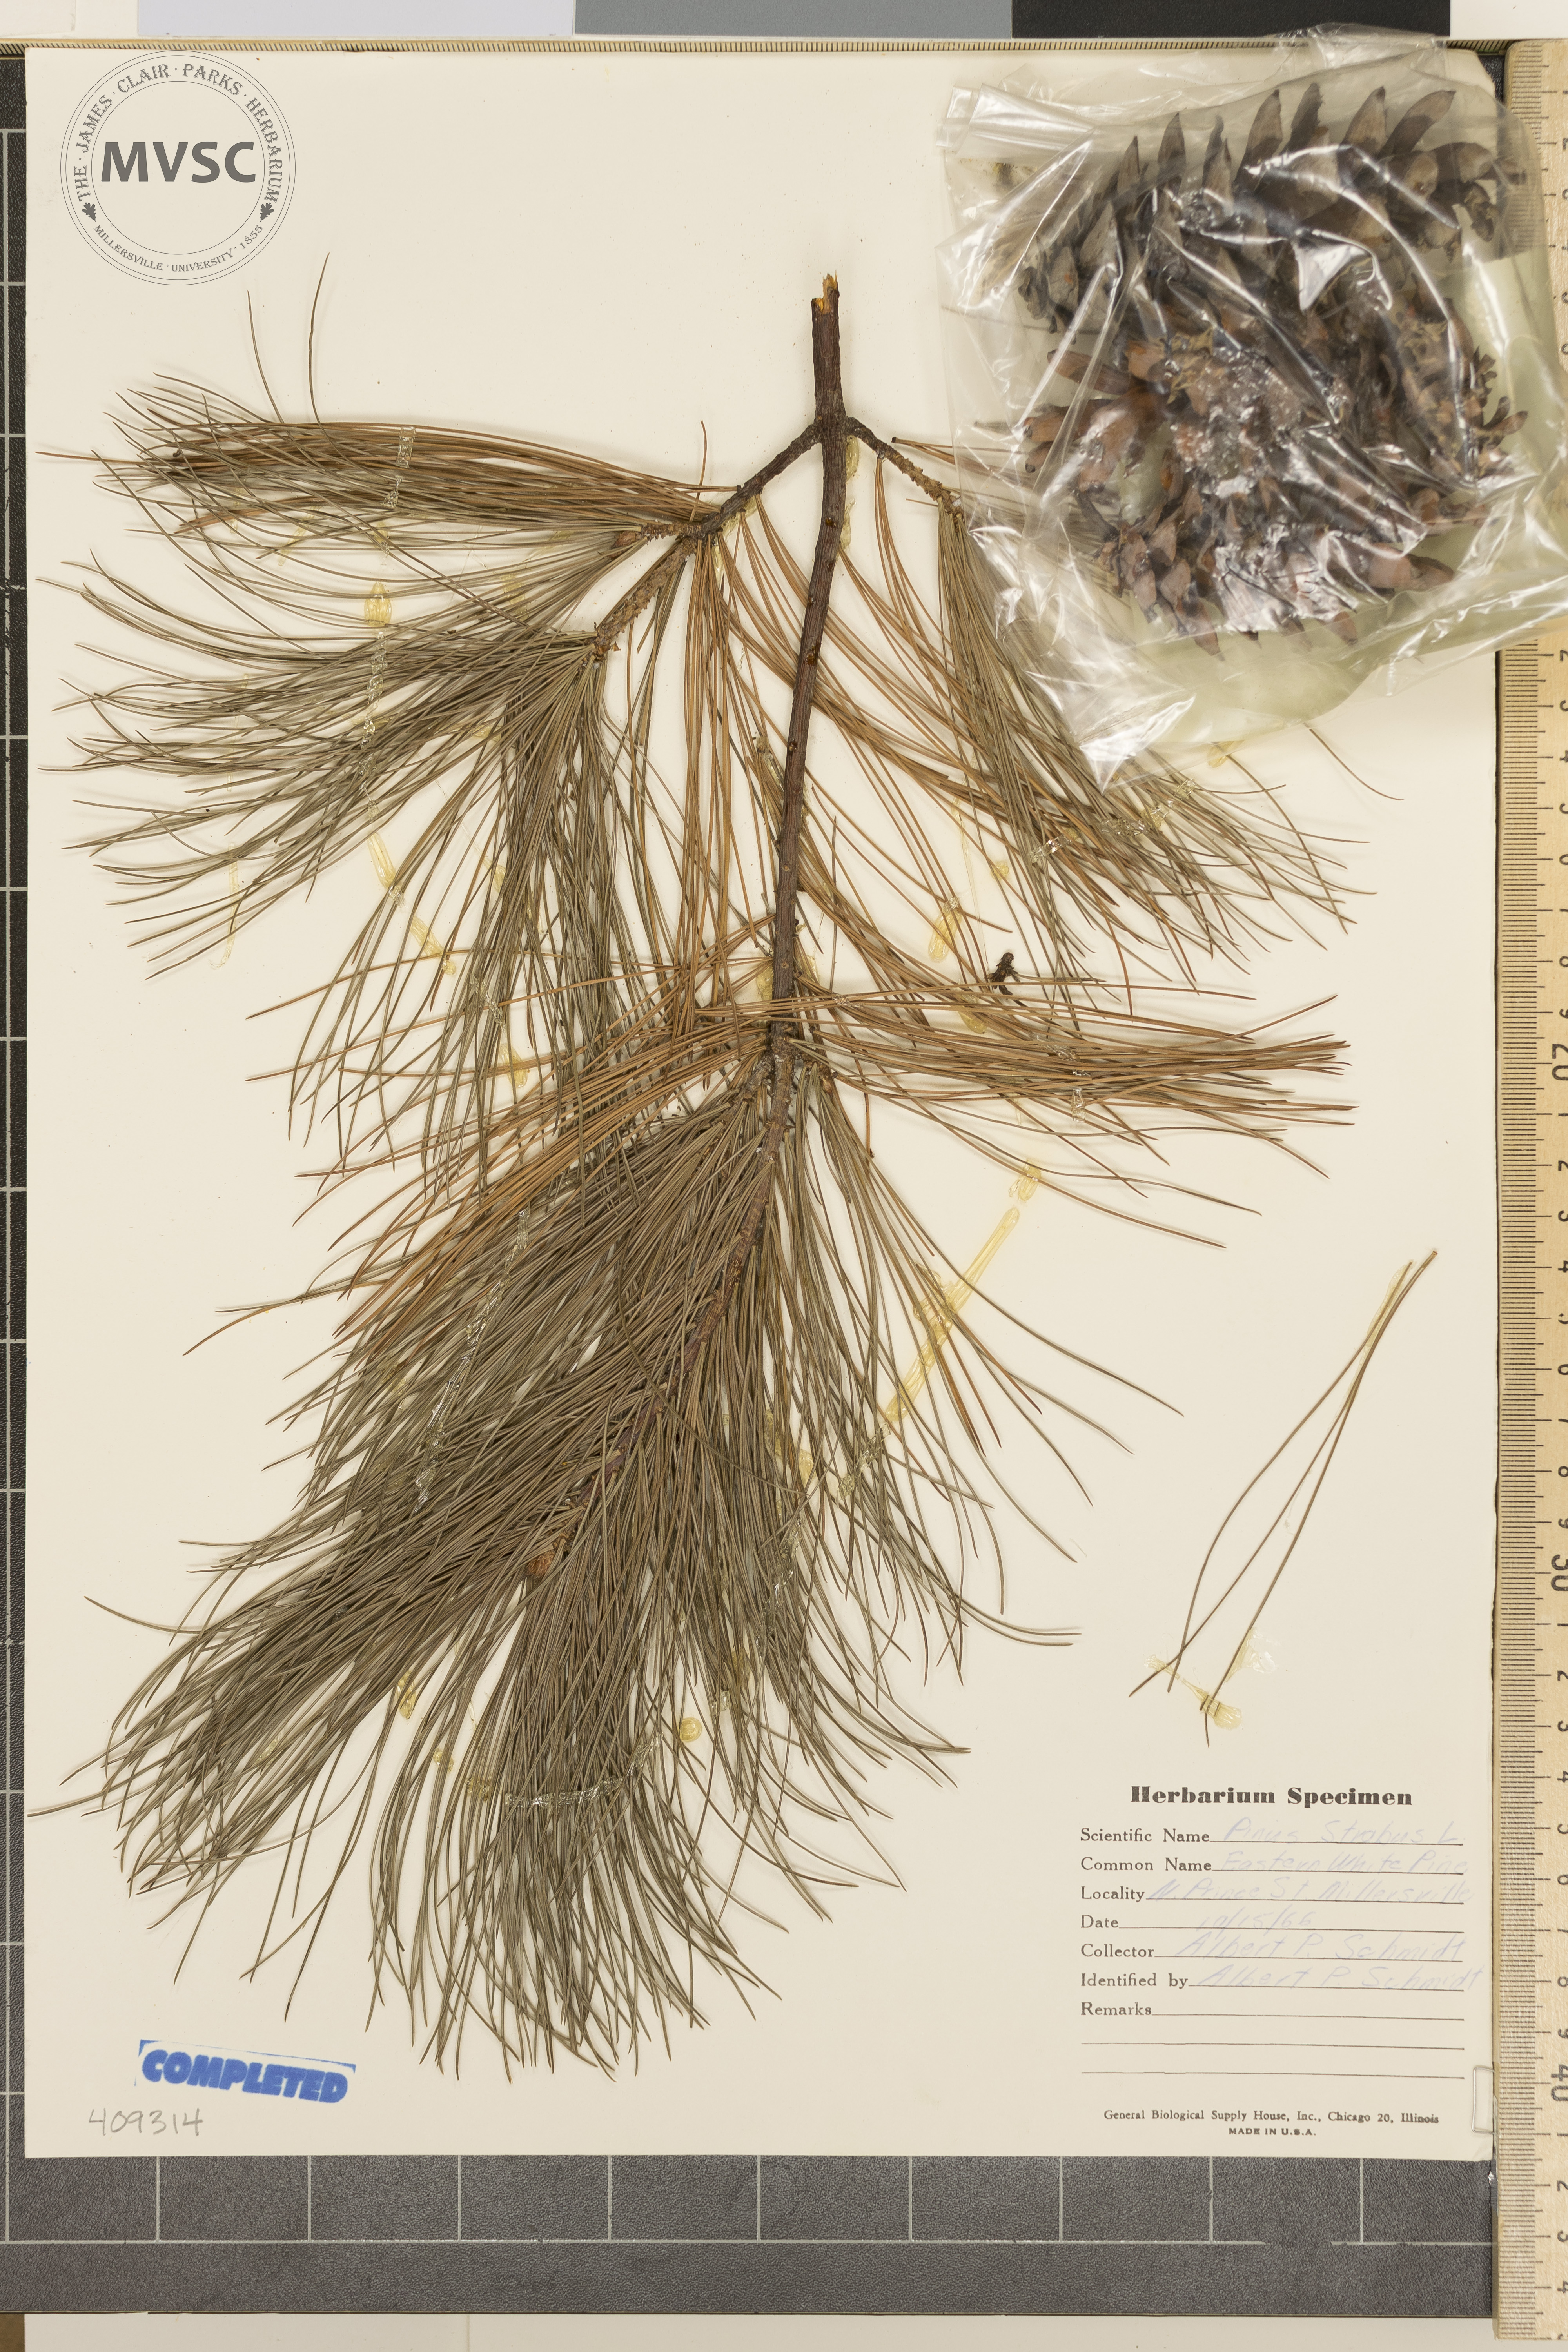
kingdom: Plantae
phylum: Tracheophyta
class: Pinopsida
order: Pinales
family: Pinaceae
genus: Pinus
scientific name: Pinus strobus
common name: Weymouth pine
